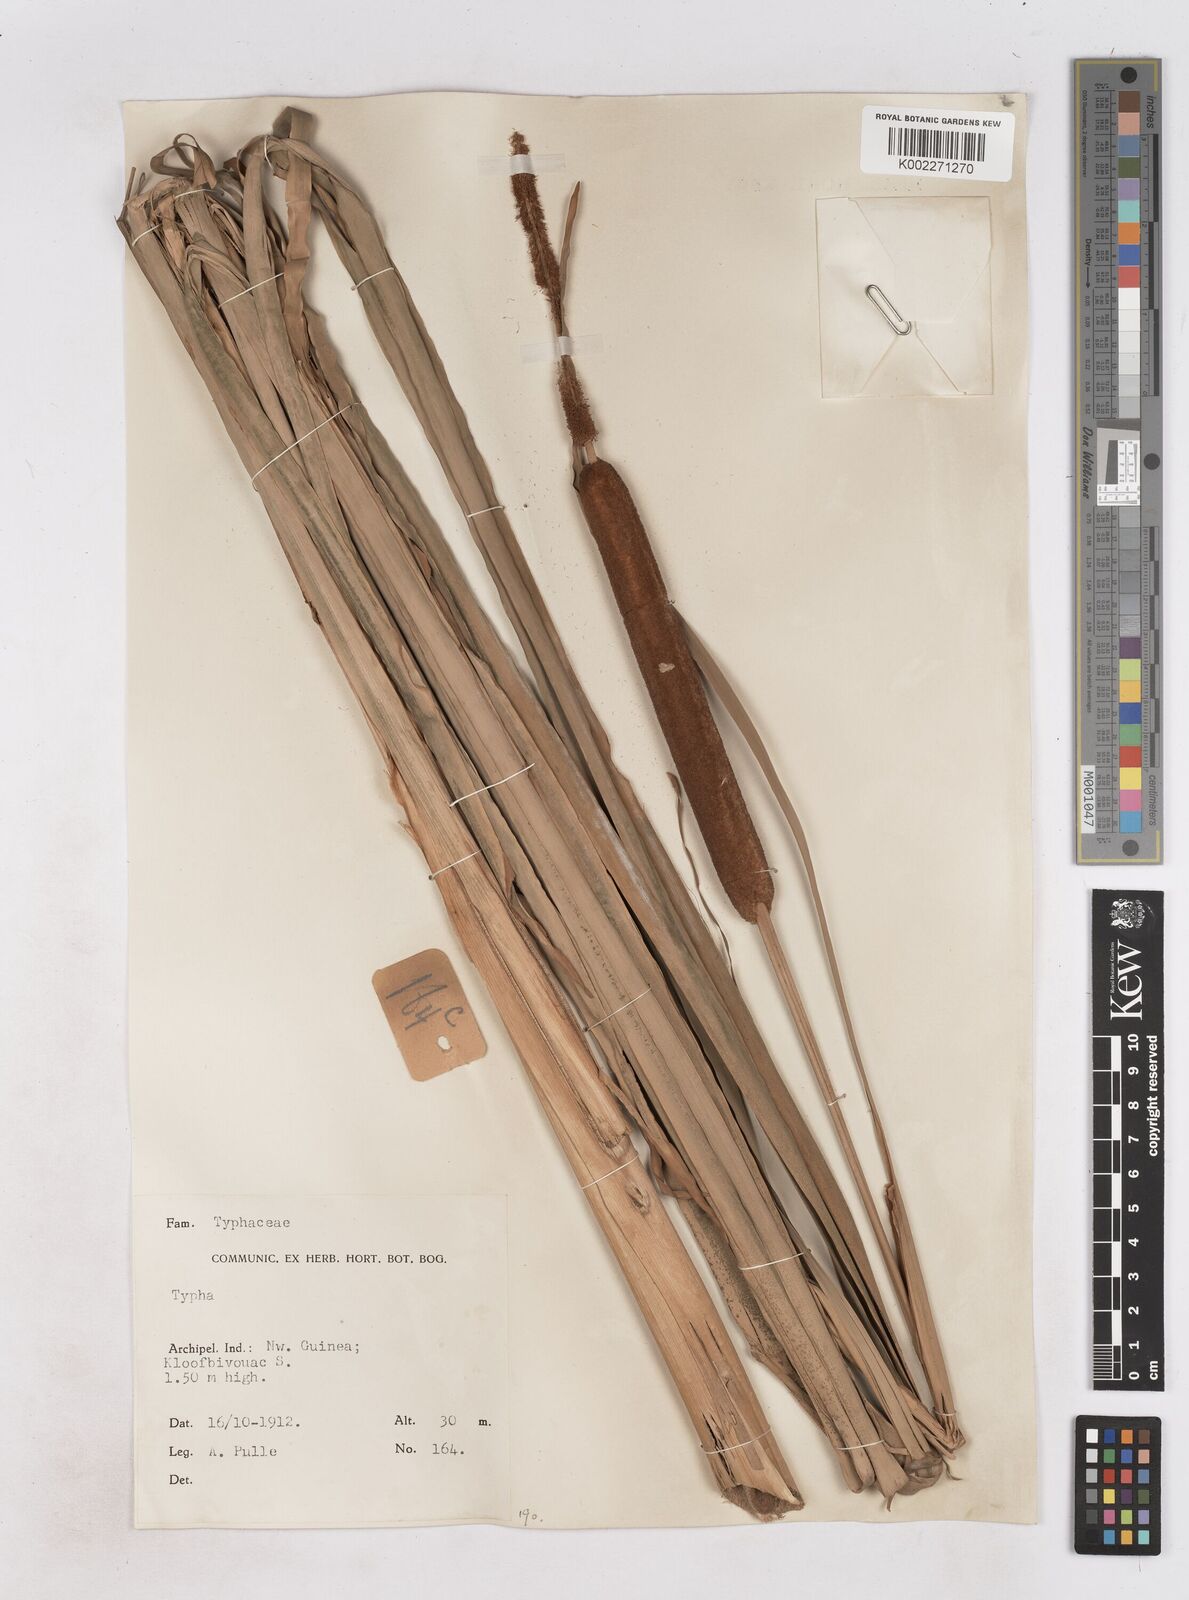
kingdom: Plantae
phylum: Tracheophyta
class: Liliopsida
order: Poales
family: Typhaceae
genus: Typha
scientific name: Typha orientalis
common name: Bullrush
